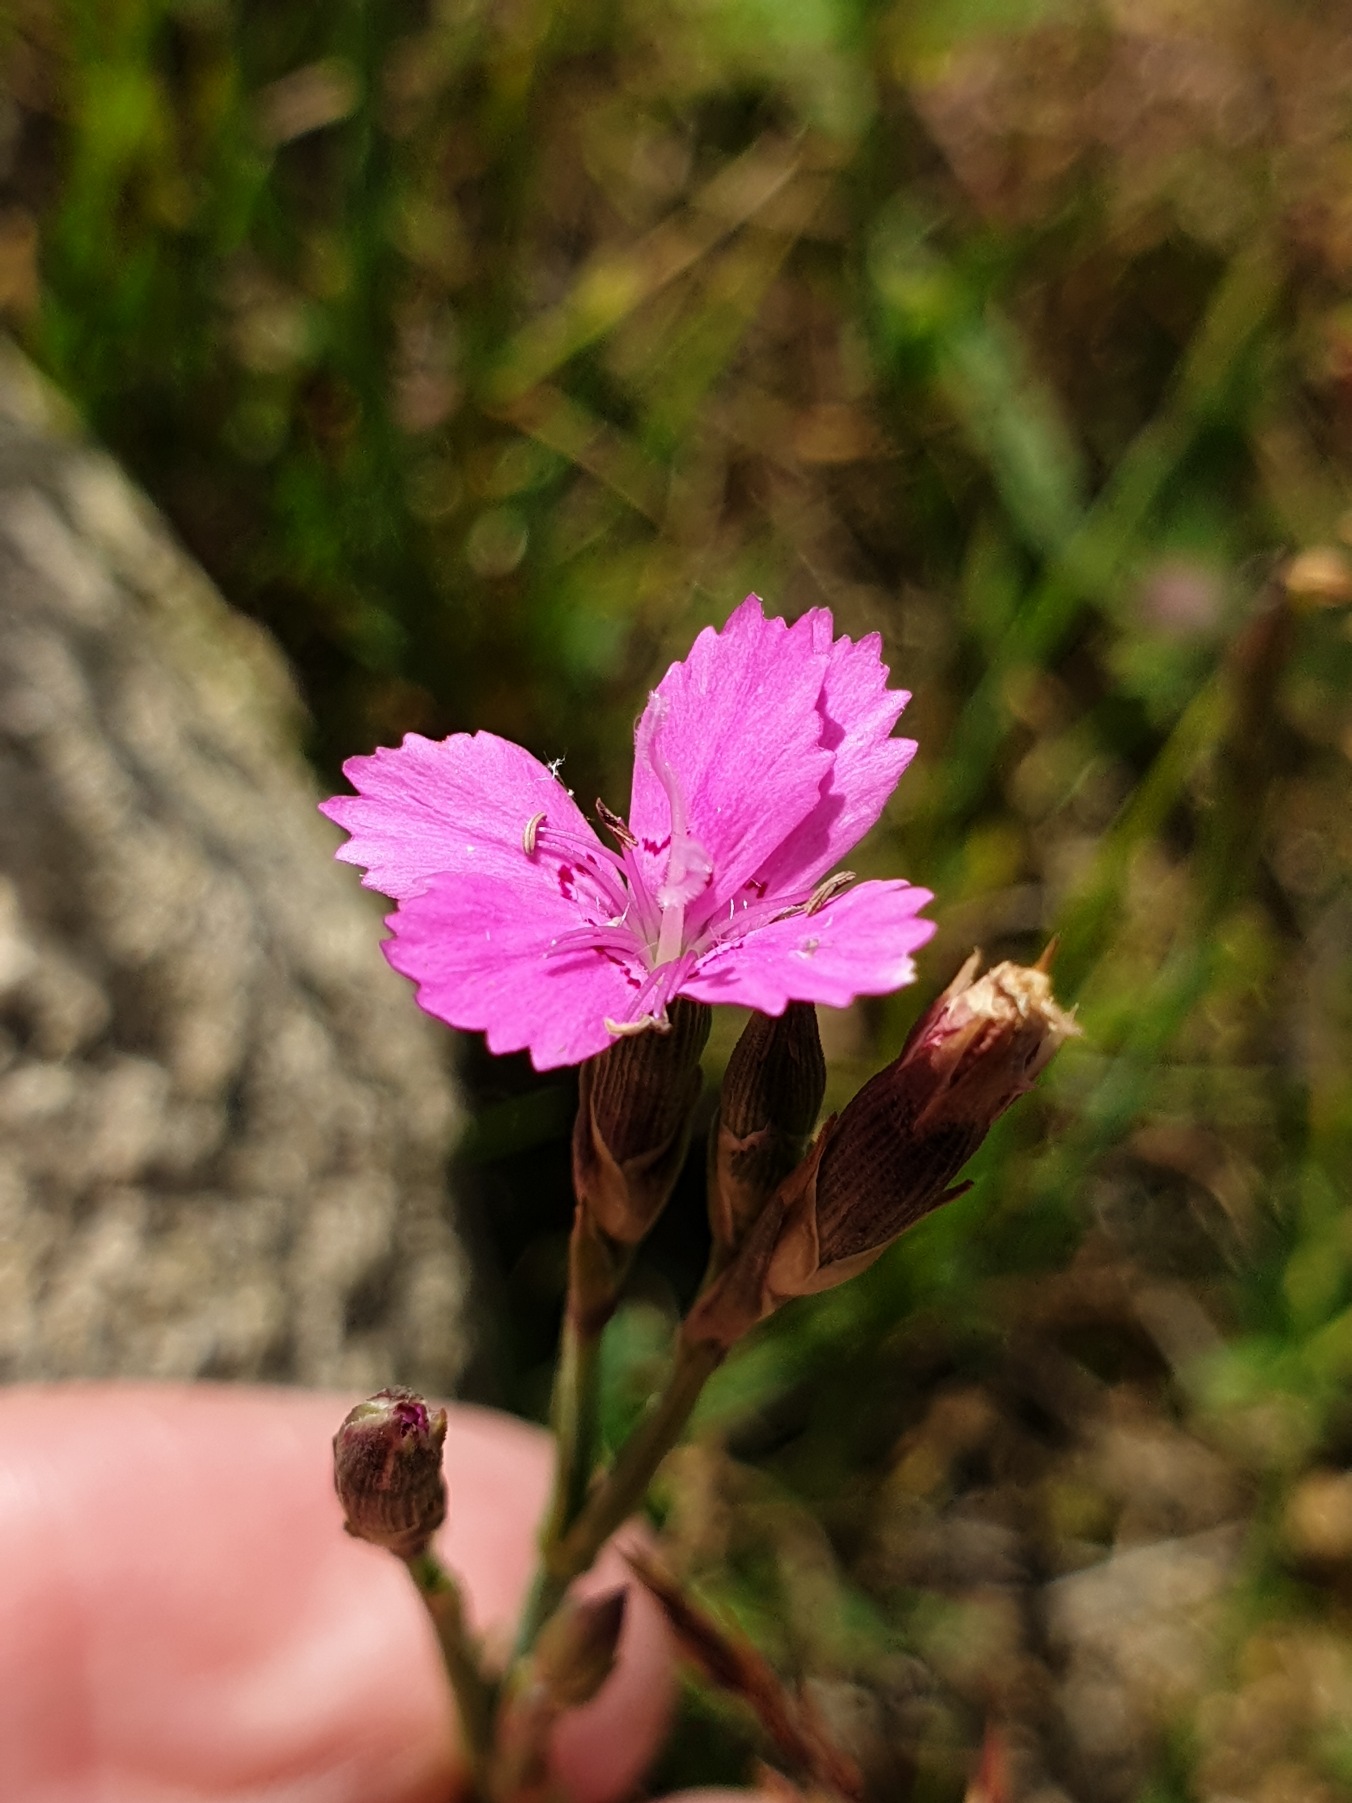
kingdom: Plantae
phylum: Tracheophyta
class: Magnoliopsida
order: Caryophyllales
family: Caryophyllaceae
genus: Dianthus
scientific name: Dianthus deltoides
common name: Bakke-nellike
